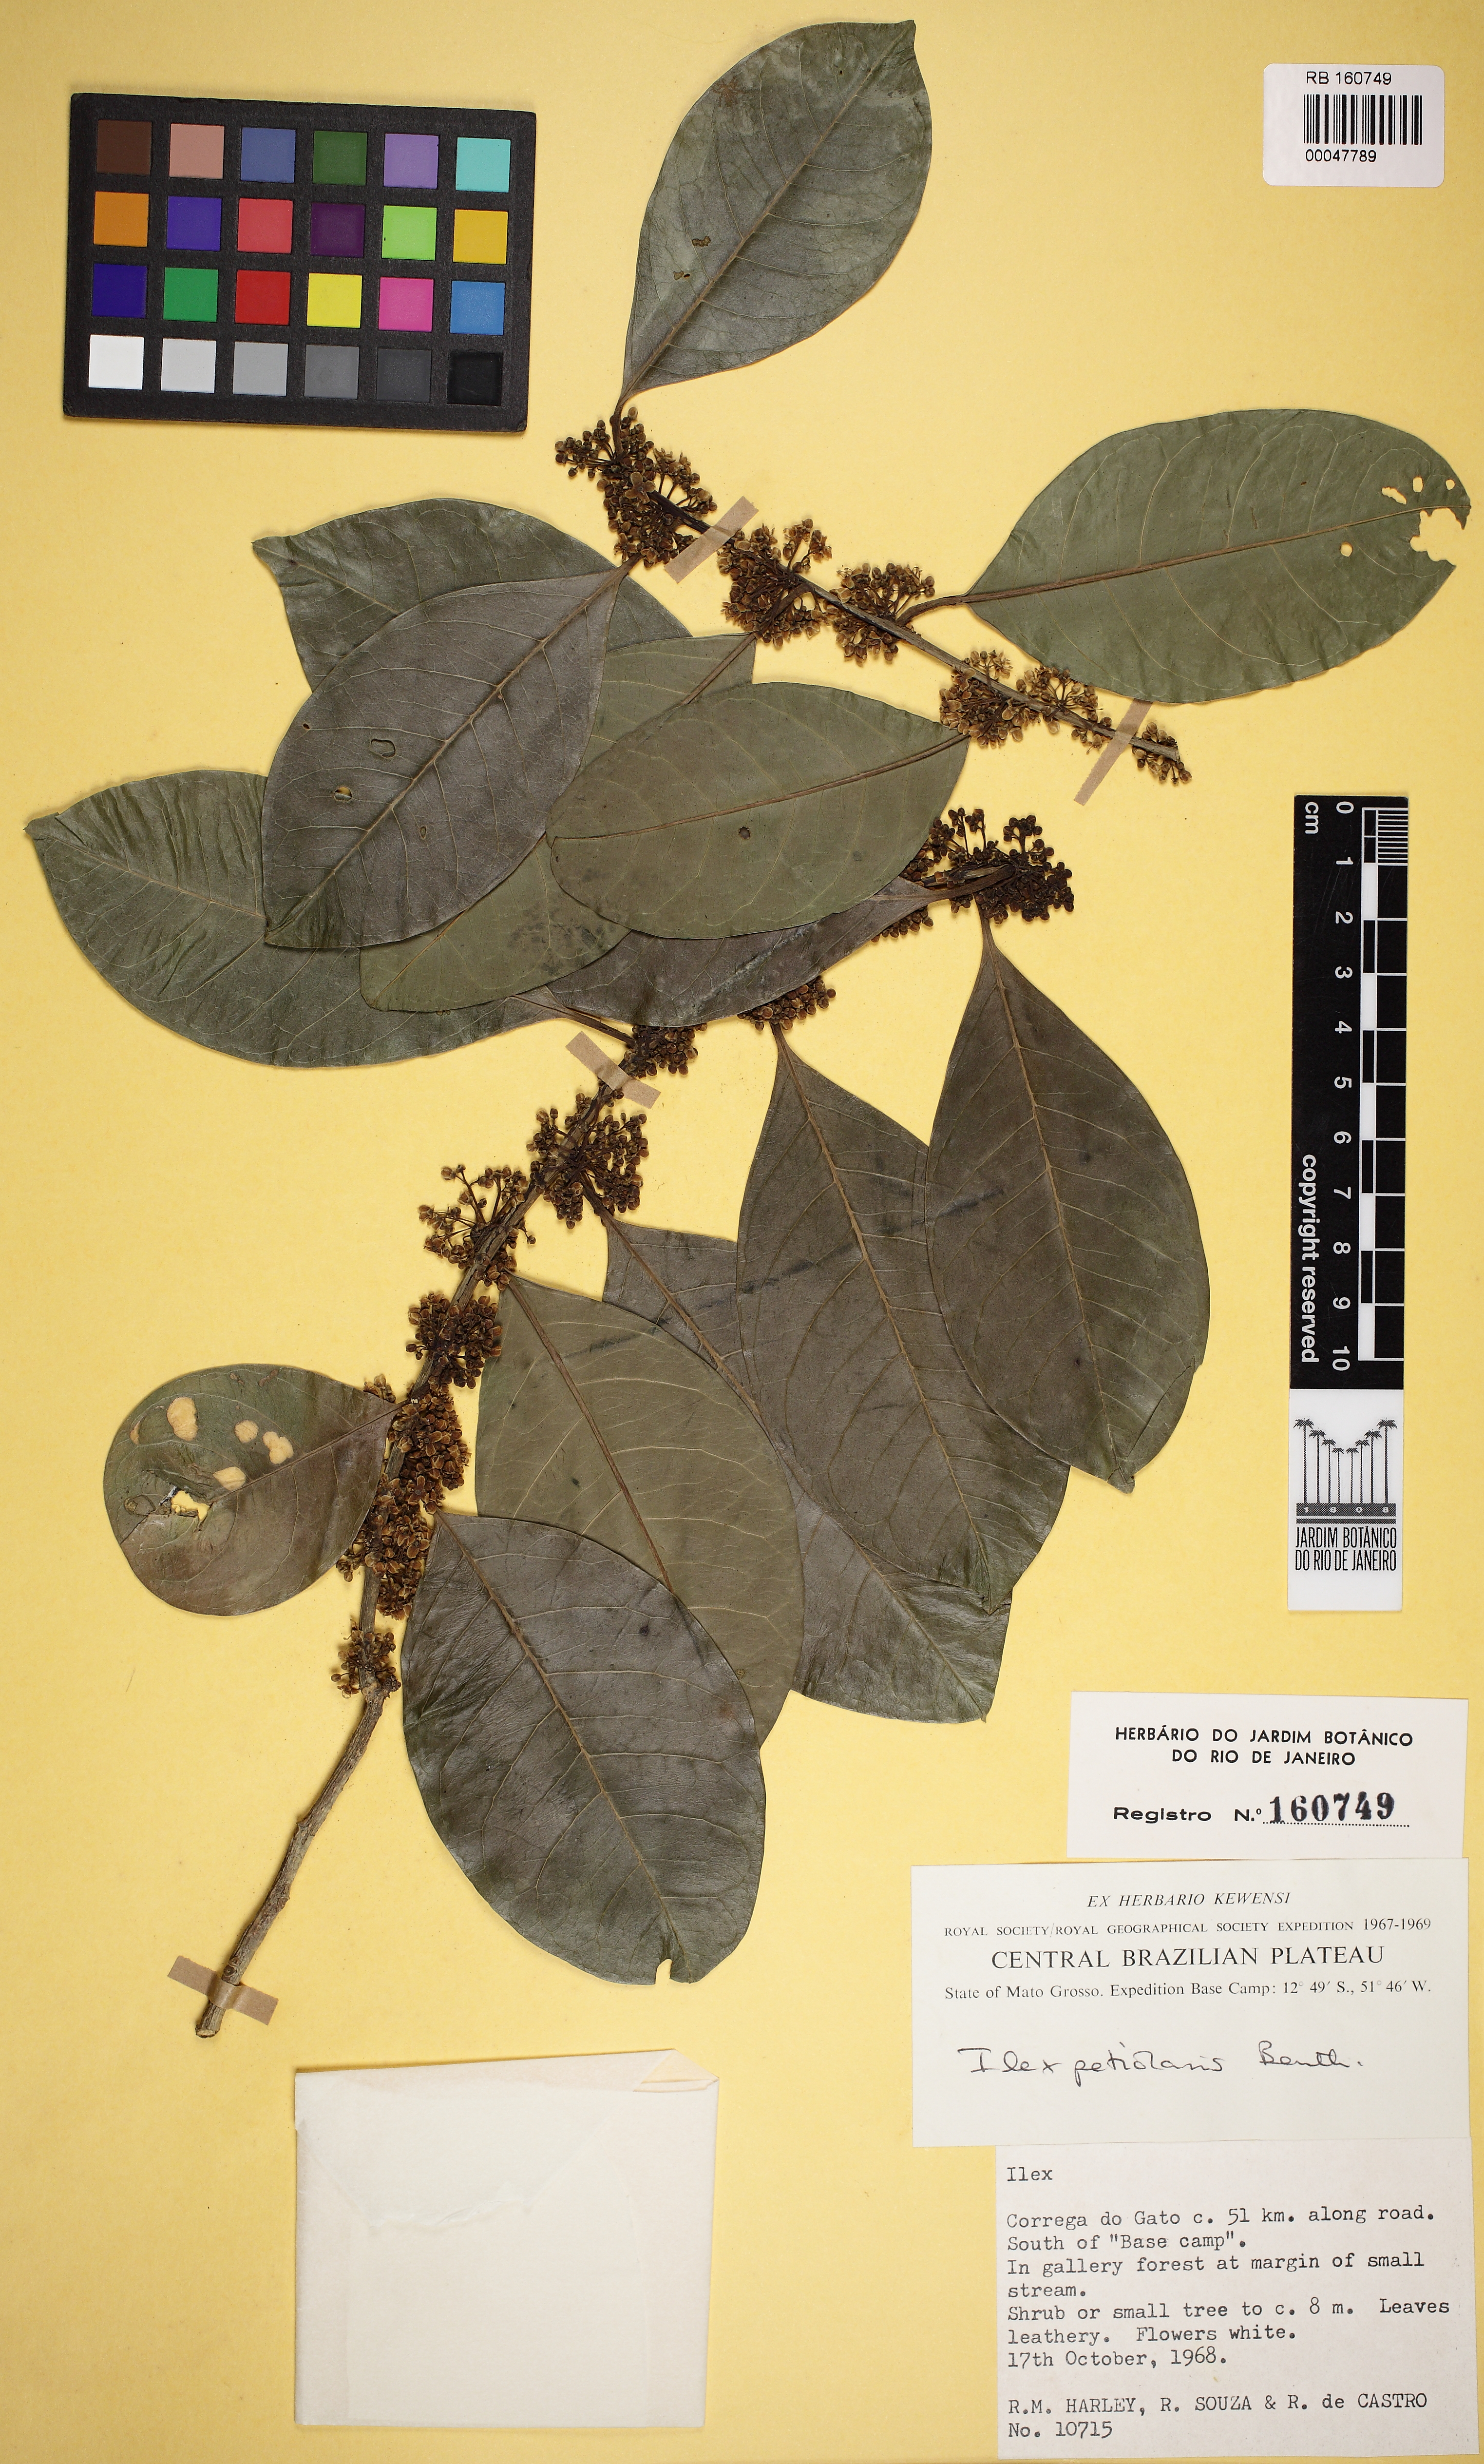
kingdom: Plantae
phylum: Tracheophyta
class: Magnoliopsida
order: Aquifoliales
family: Aquifoliaceae
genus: Ilex
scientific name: Ilex petiolaris
